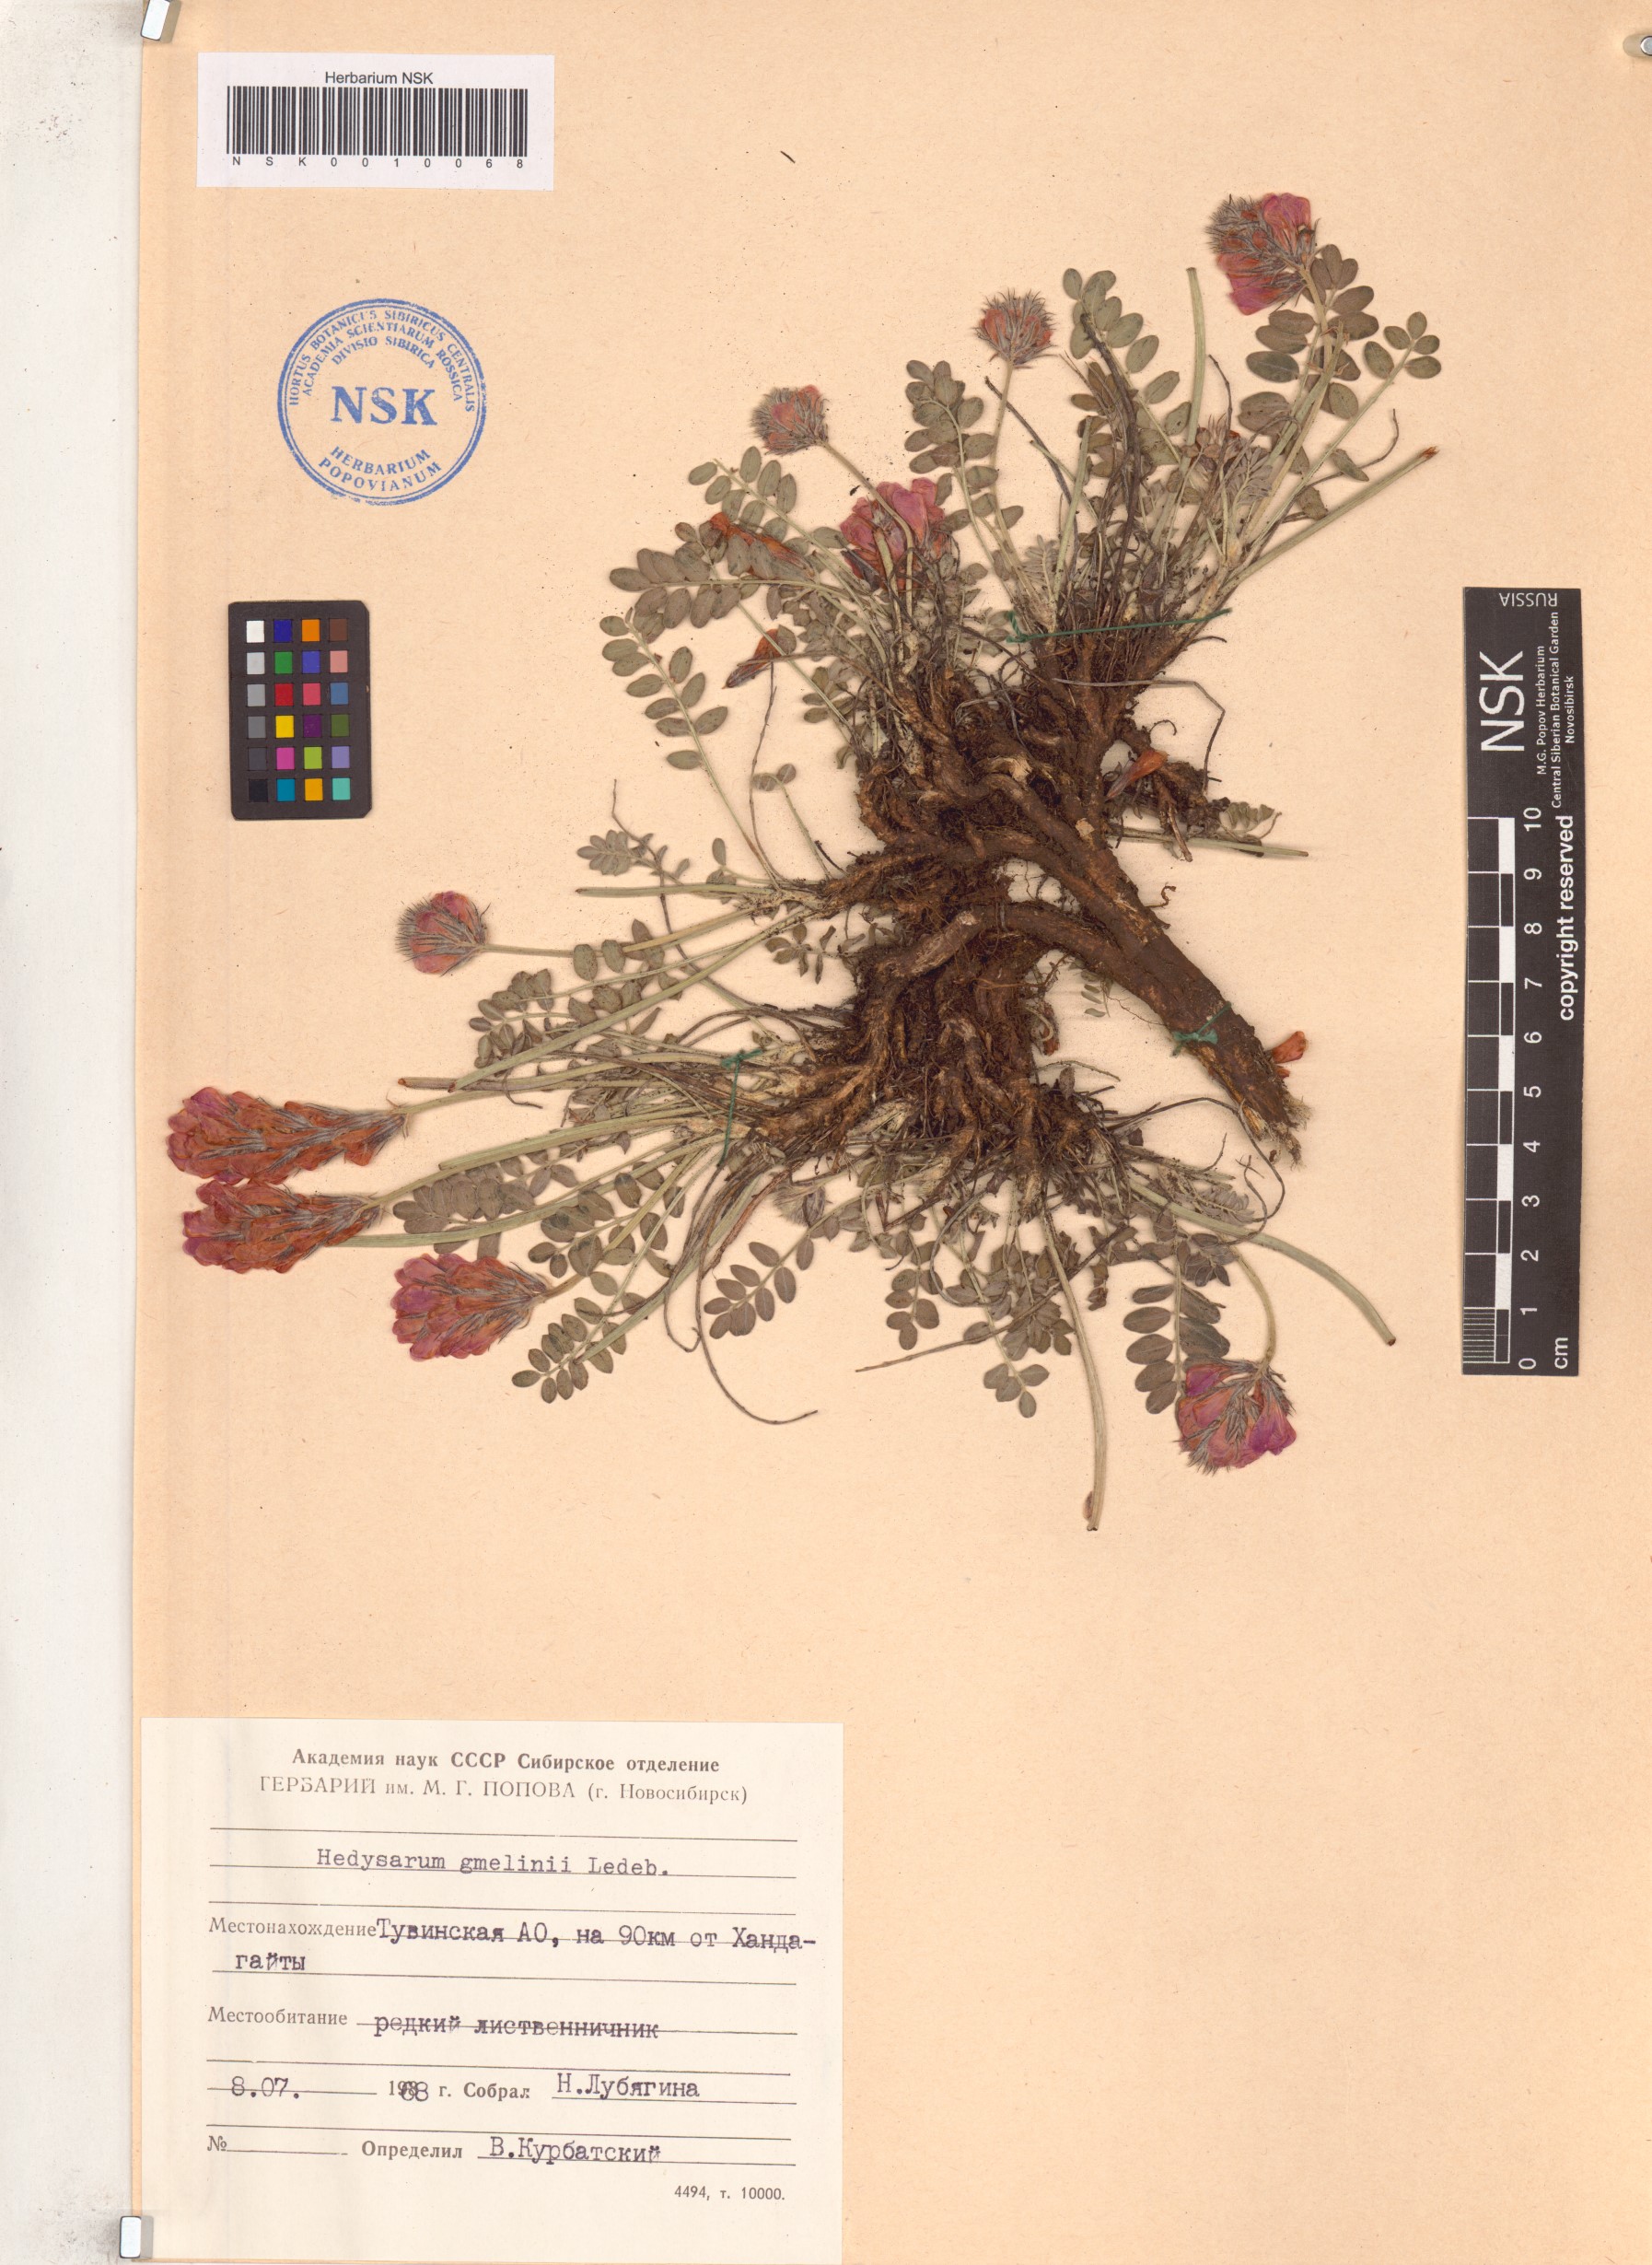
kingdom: Plantae
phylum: Tracheophyta
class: Magnoliopsida
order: Fabales
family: Fabaceae
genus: Hedysarum
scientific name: Hedysarum gmelinii
